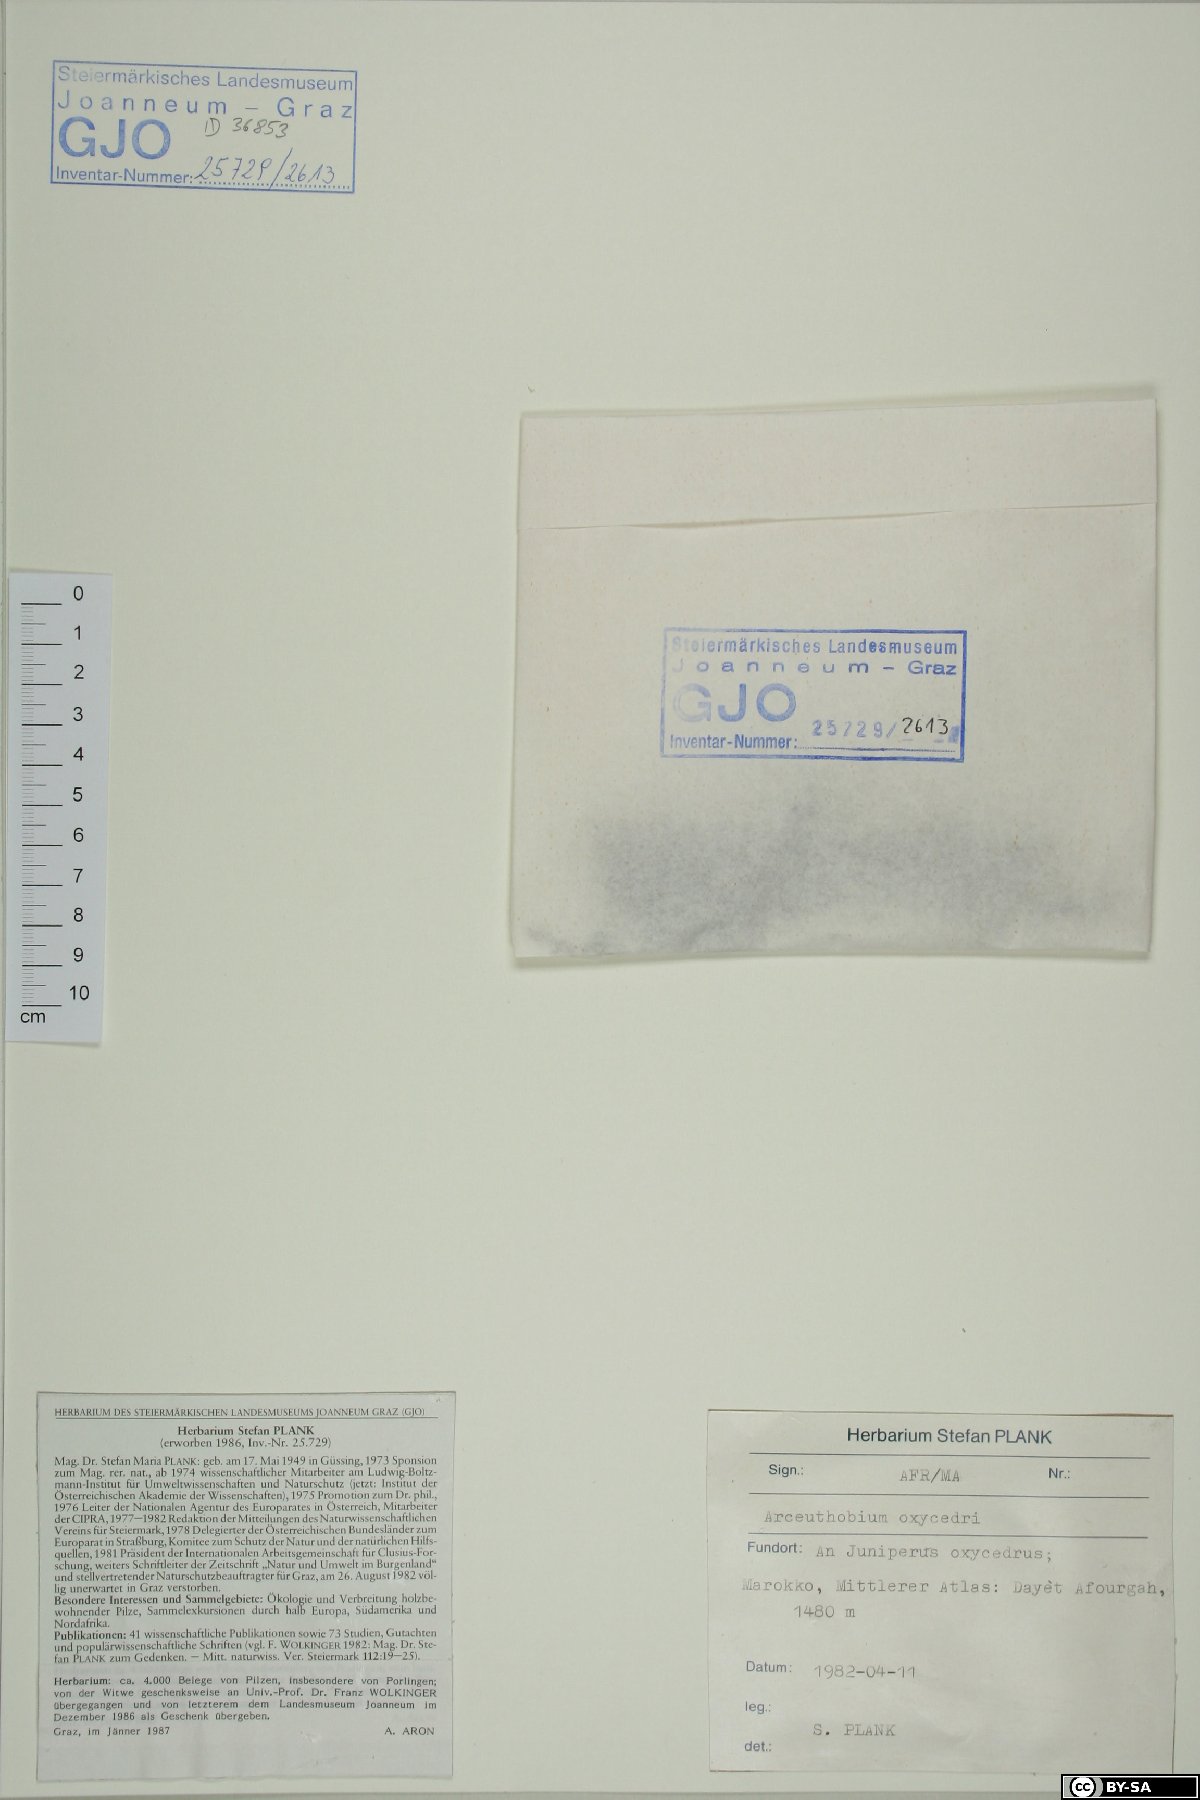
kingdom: Plantae
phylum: Tracheophyta
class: Magnoliopsida
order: Santalales
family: Viscaceae
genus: Arceuthobium
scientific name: Arceuthobium oxycedri
